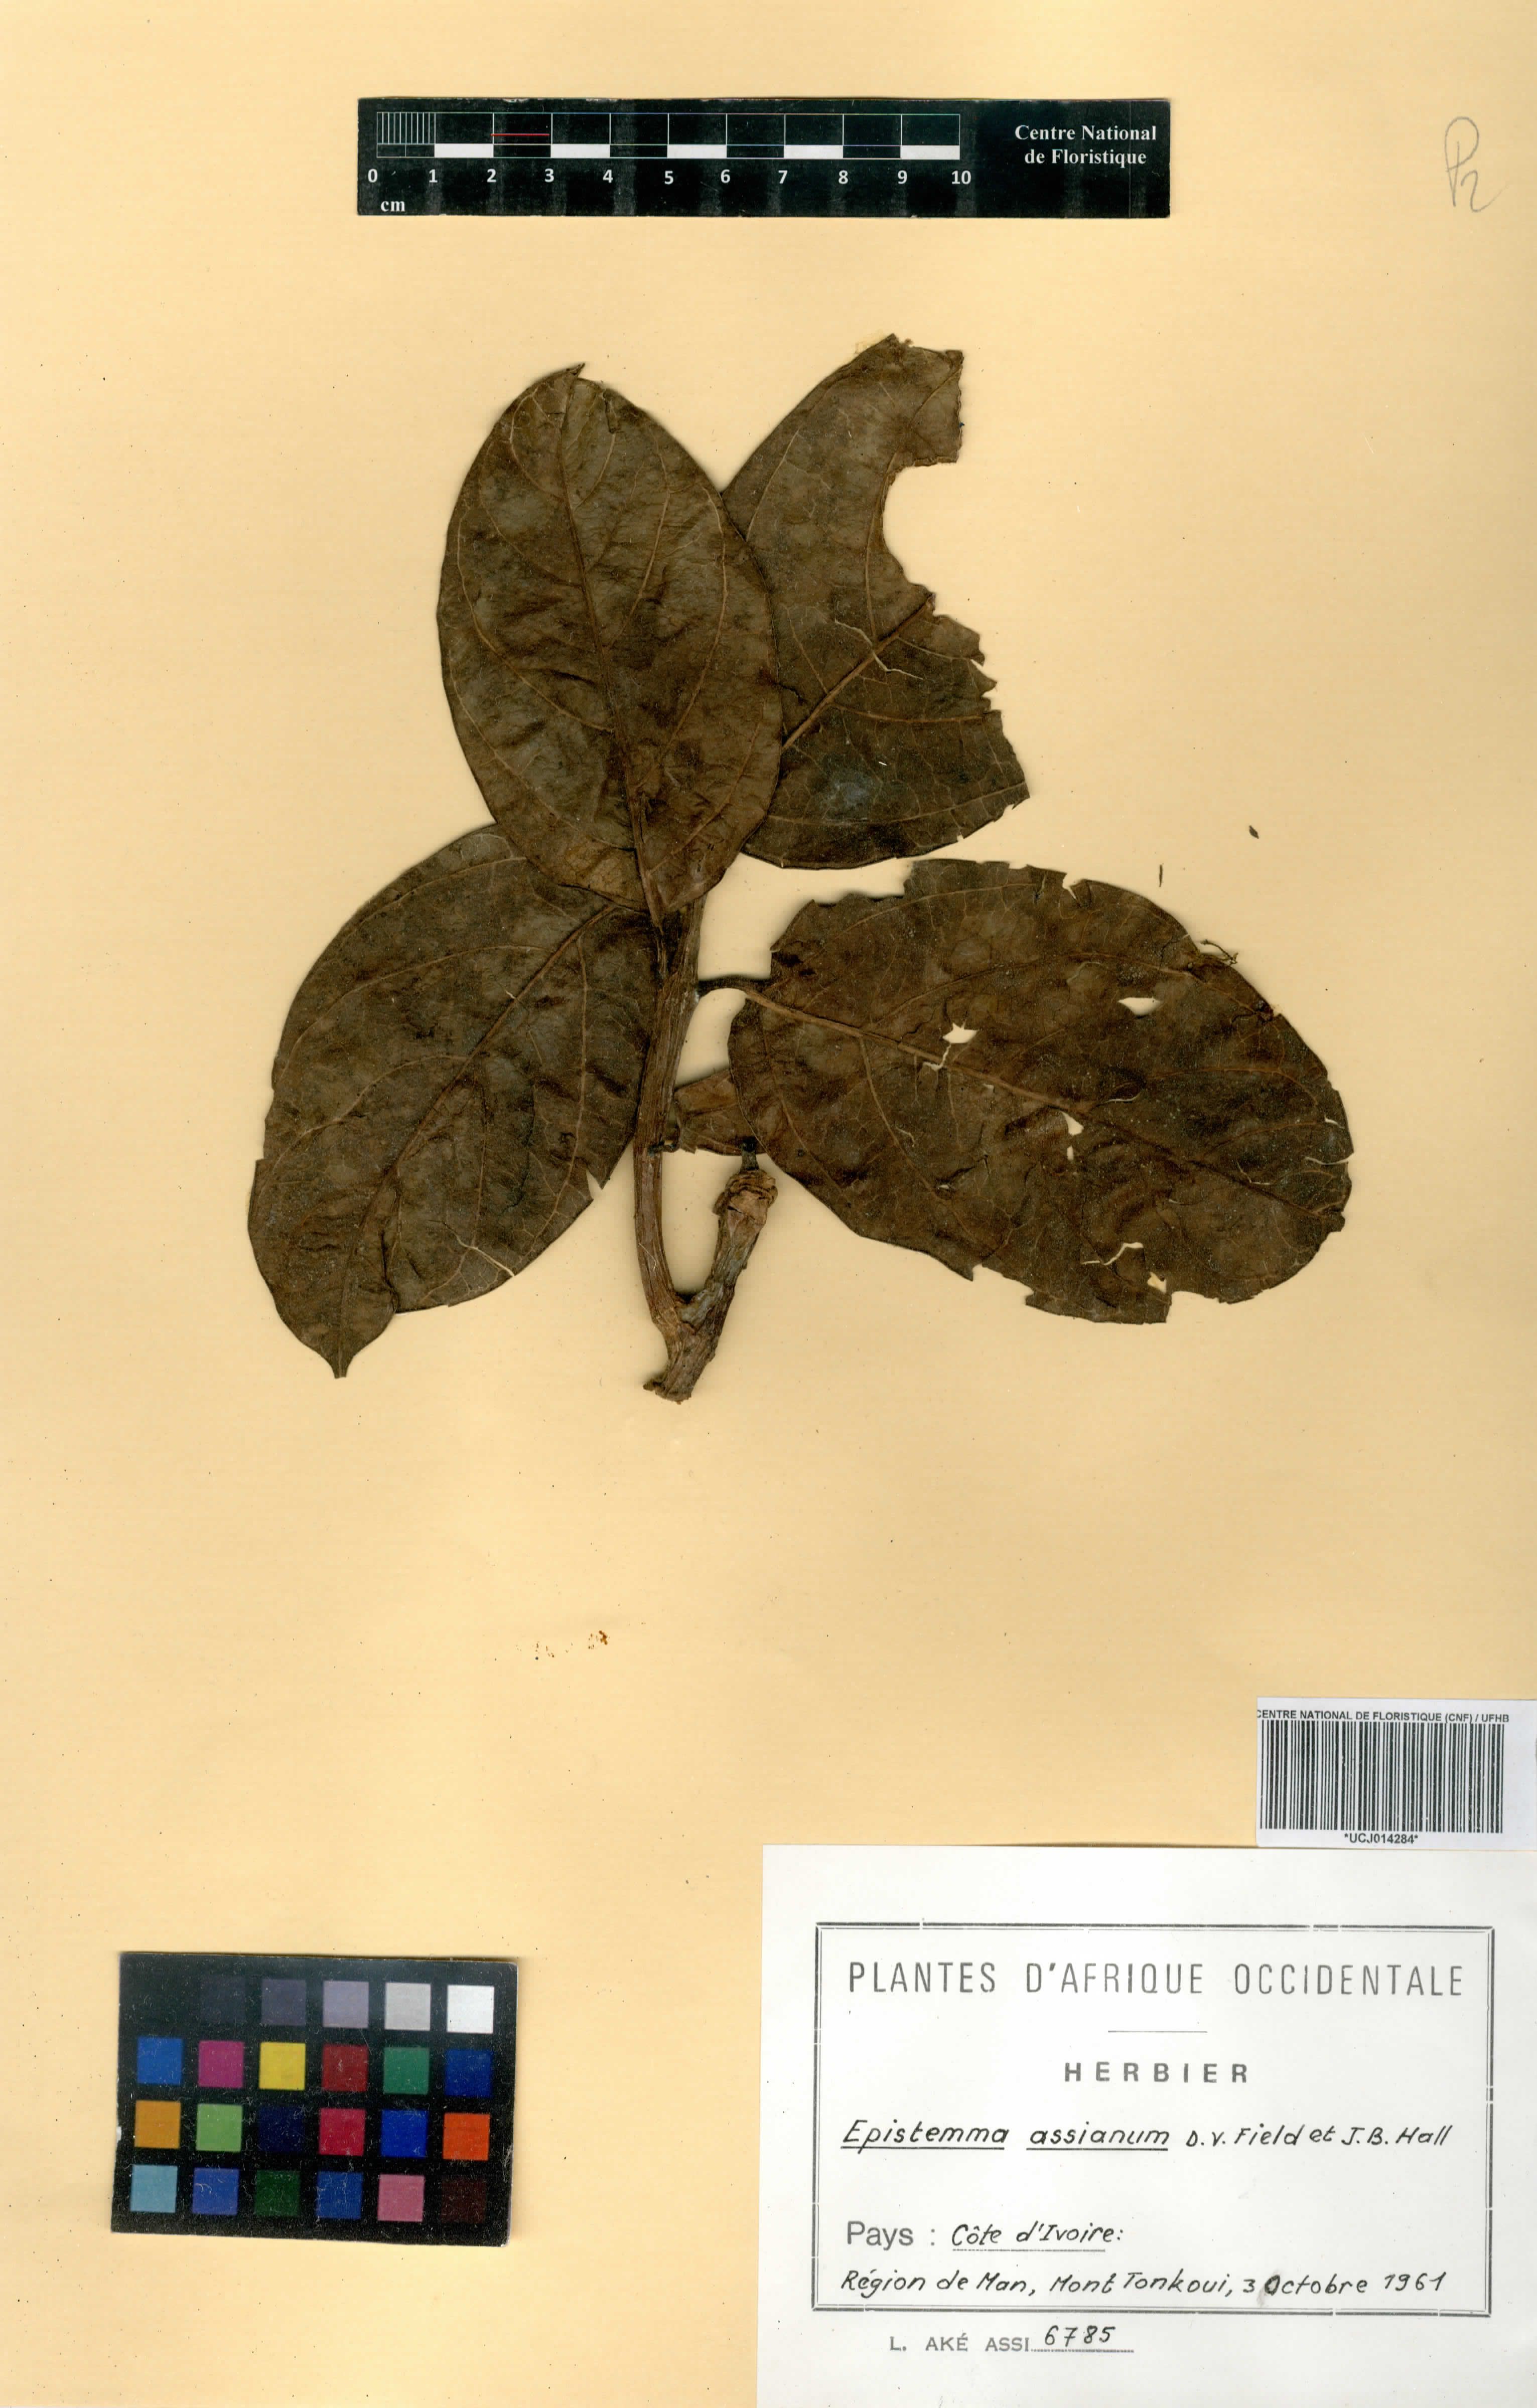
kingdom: Plantae
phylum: Tracheophyta
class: Magnoliopsida
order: Gentianales
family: Apocynaceae
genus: Epistemma
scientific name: Epistemma assianum
